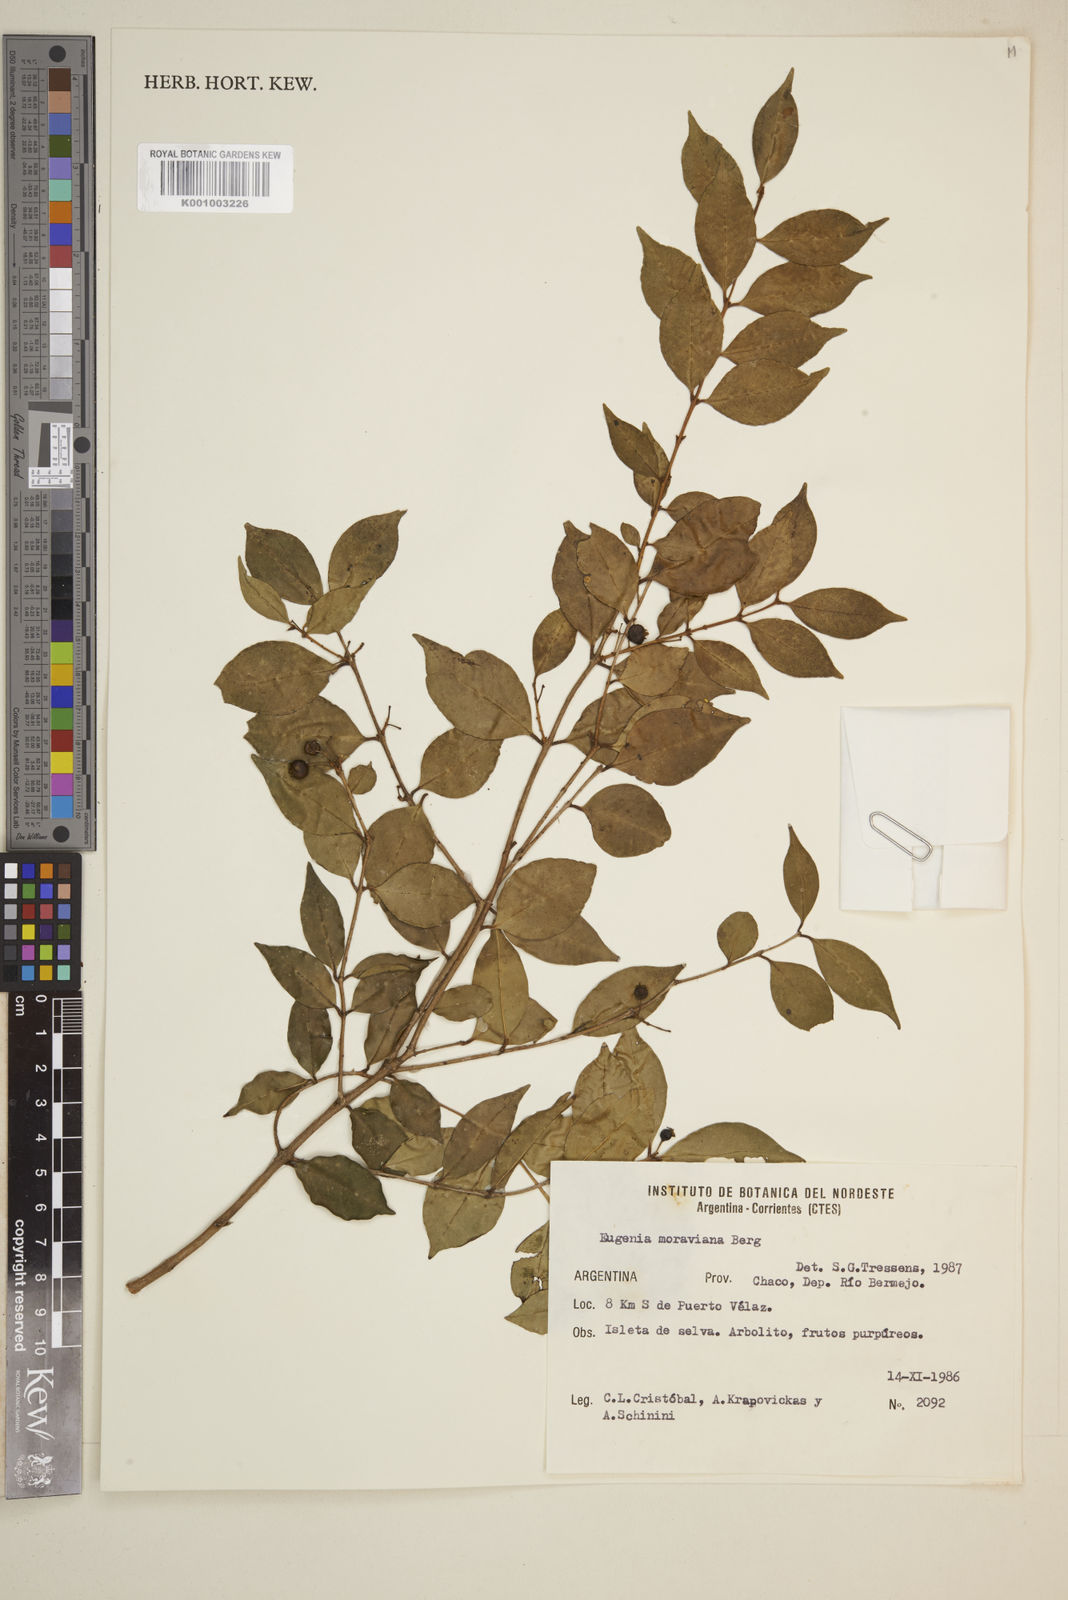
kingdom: Plantae
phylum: Tracheophyta
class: Magnoliopsida
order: Myrtales
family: Myrtaceae
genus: Eugenia
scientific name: Eugenia moraviana
